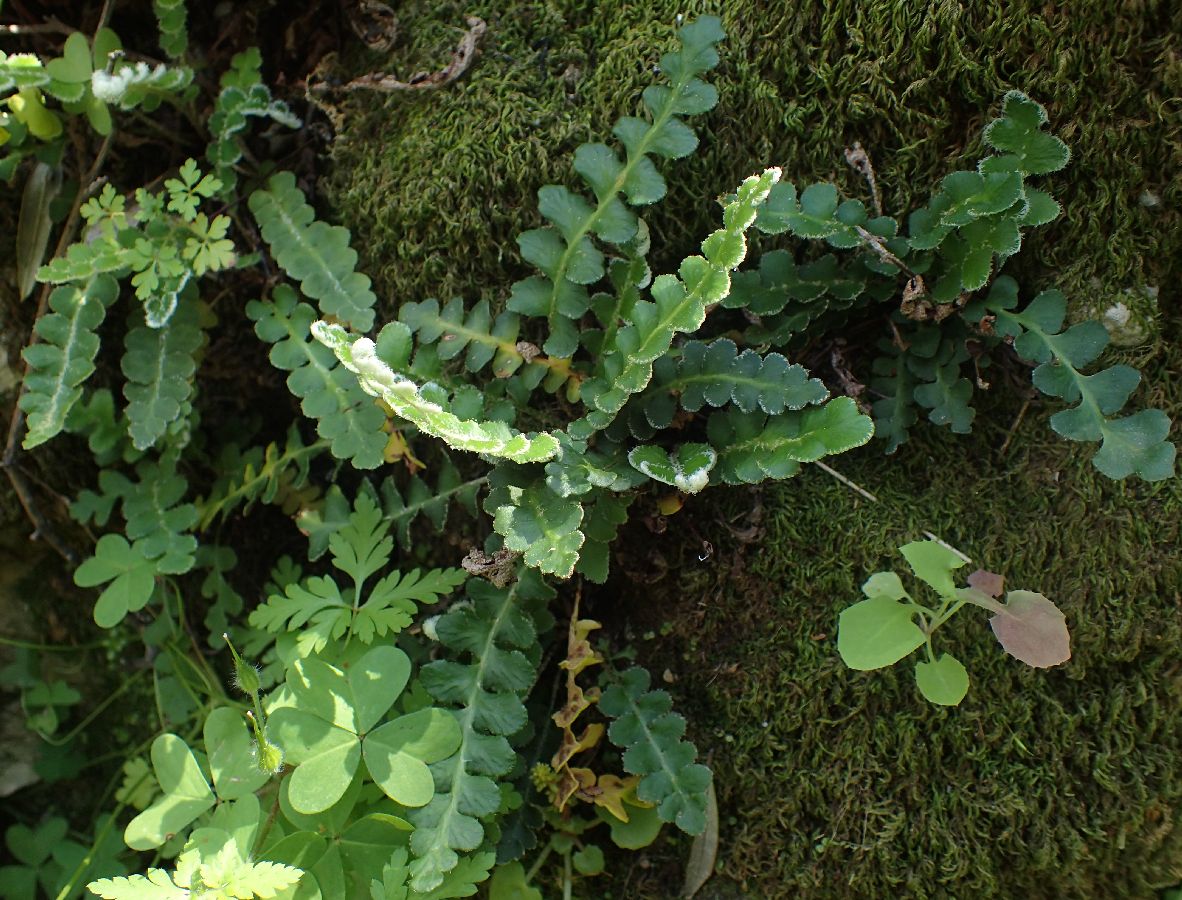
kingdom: Plantae
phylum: Tracheophyta
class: Polypodiopsida
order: Polypodiales
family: Aspleniaceae
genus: Asplenium
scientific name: Asplenium ceterach
